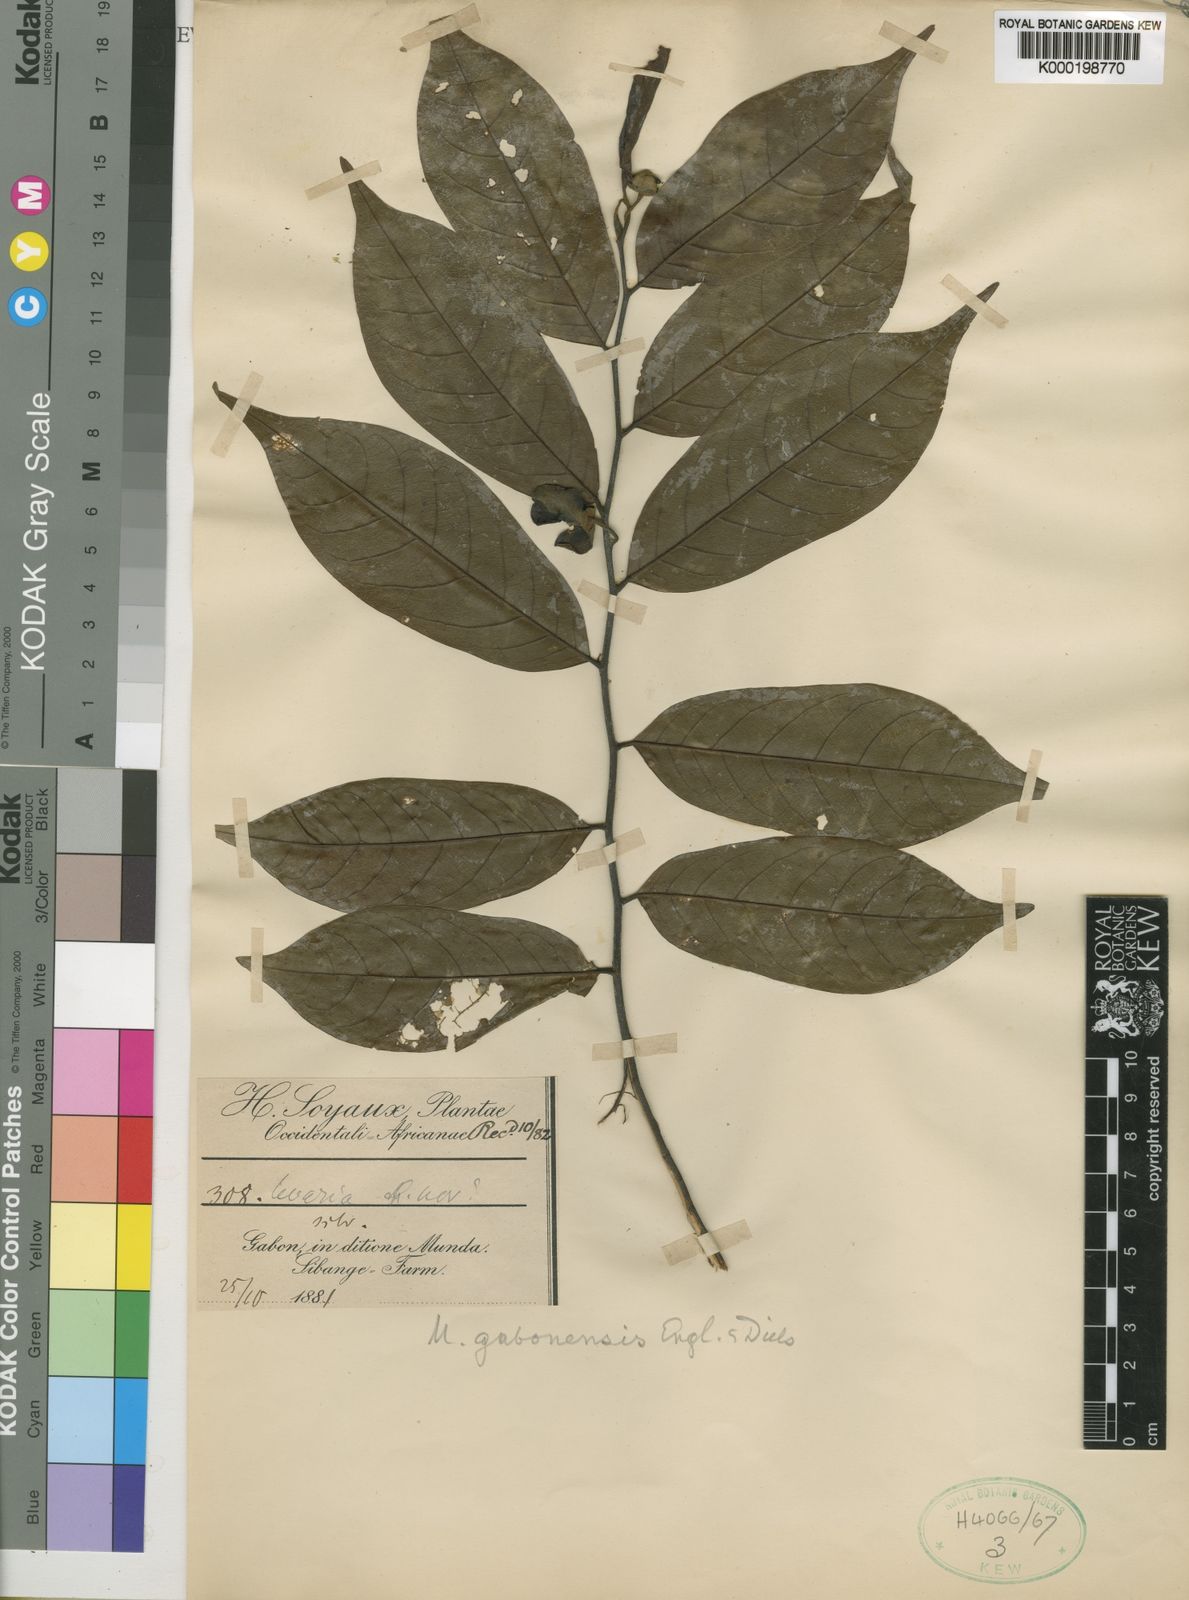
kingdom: Plantae
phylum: Tracheophyta
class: Magnoliopsida
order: Magnoliales
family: Annonaceae
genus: Uvaria
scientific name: Uvaria gabonensis
